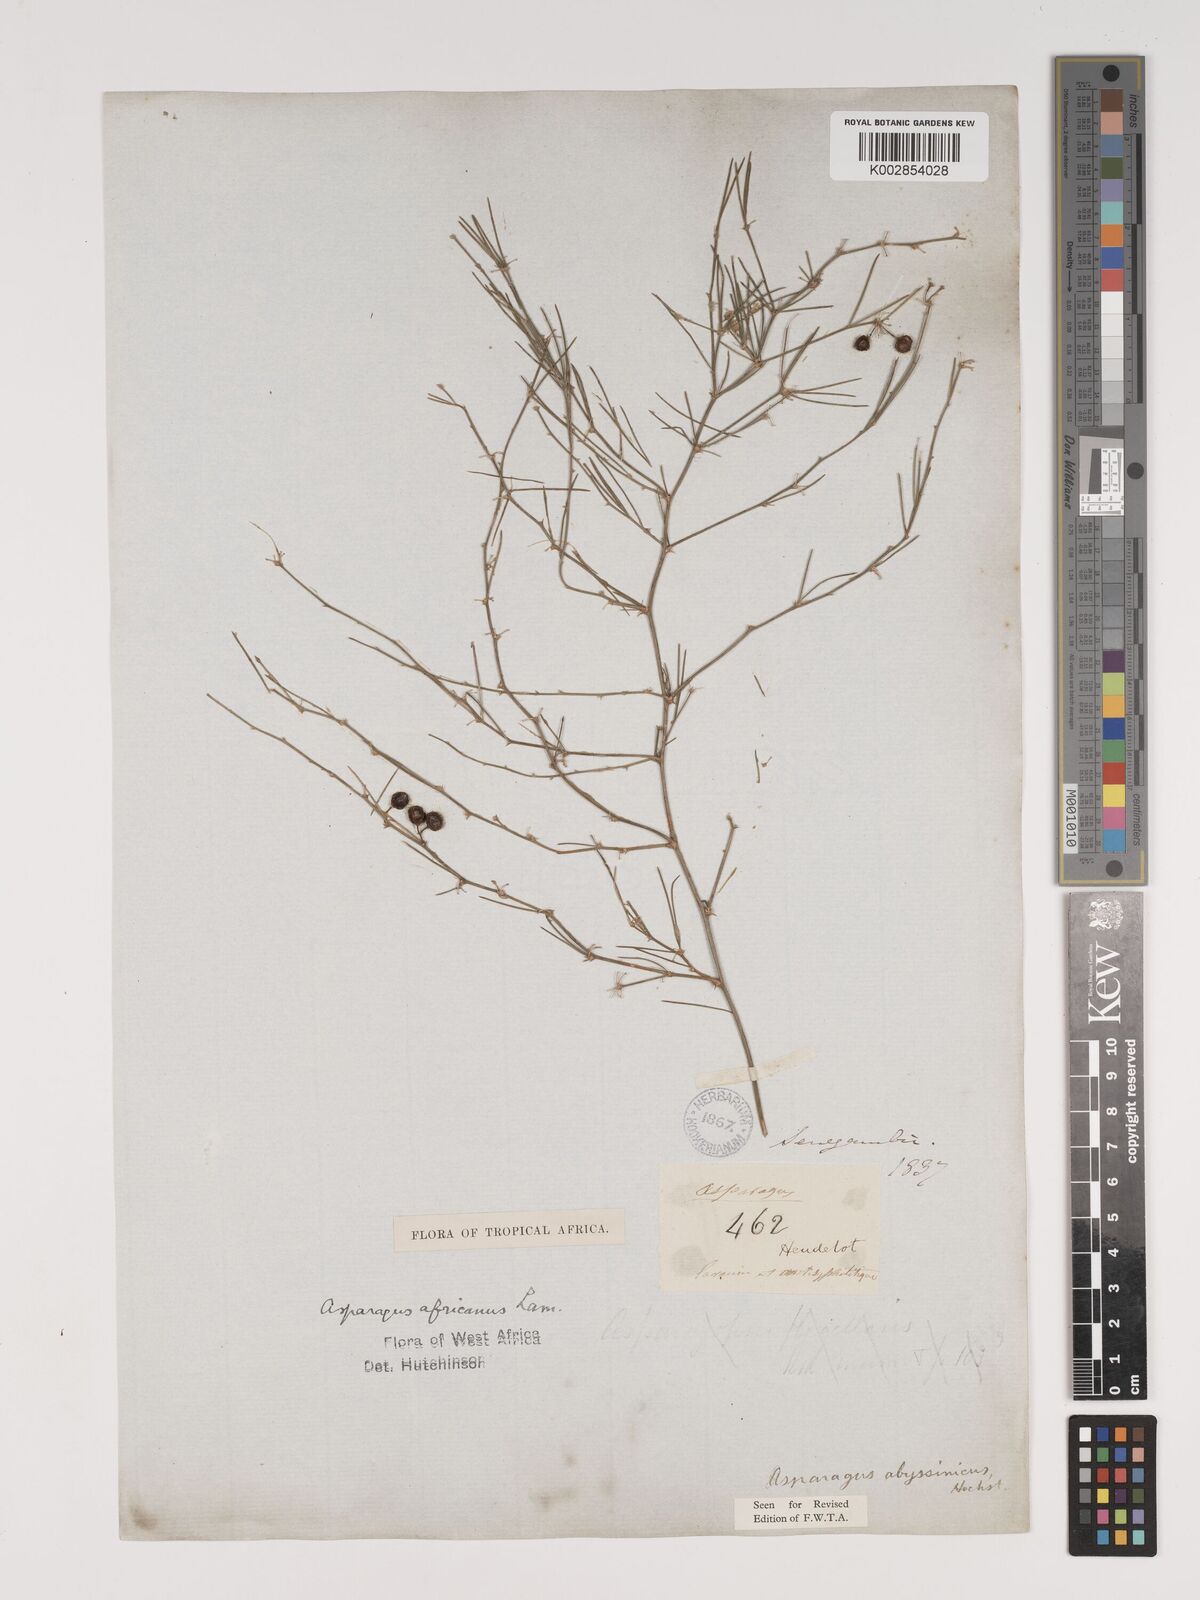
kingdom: Plantae
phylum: Tracheophyta
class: Liliopsida
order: Asparagales
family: Asparagaceae
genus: Asparagus
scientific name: Asparagus
